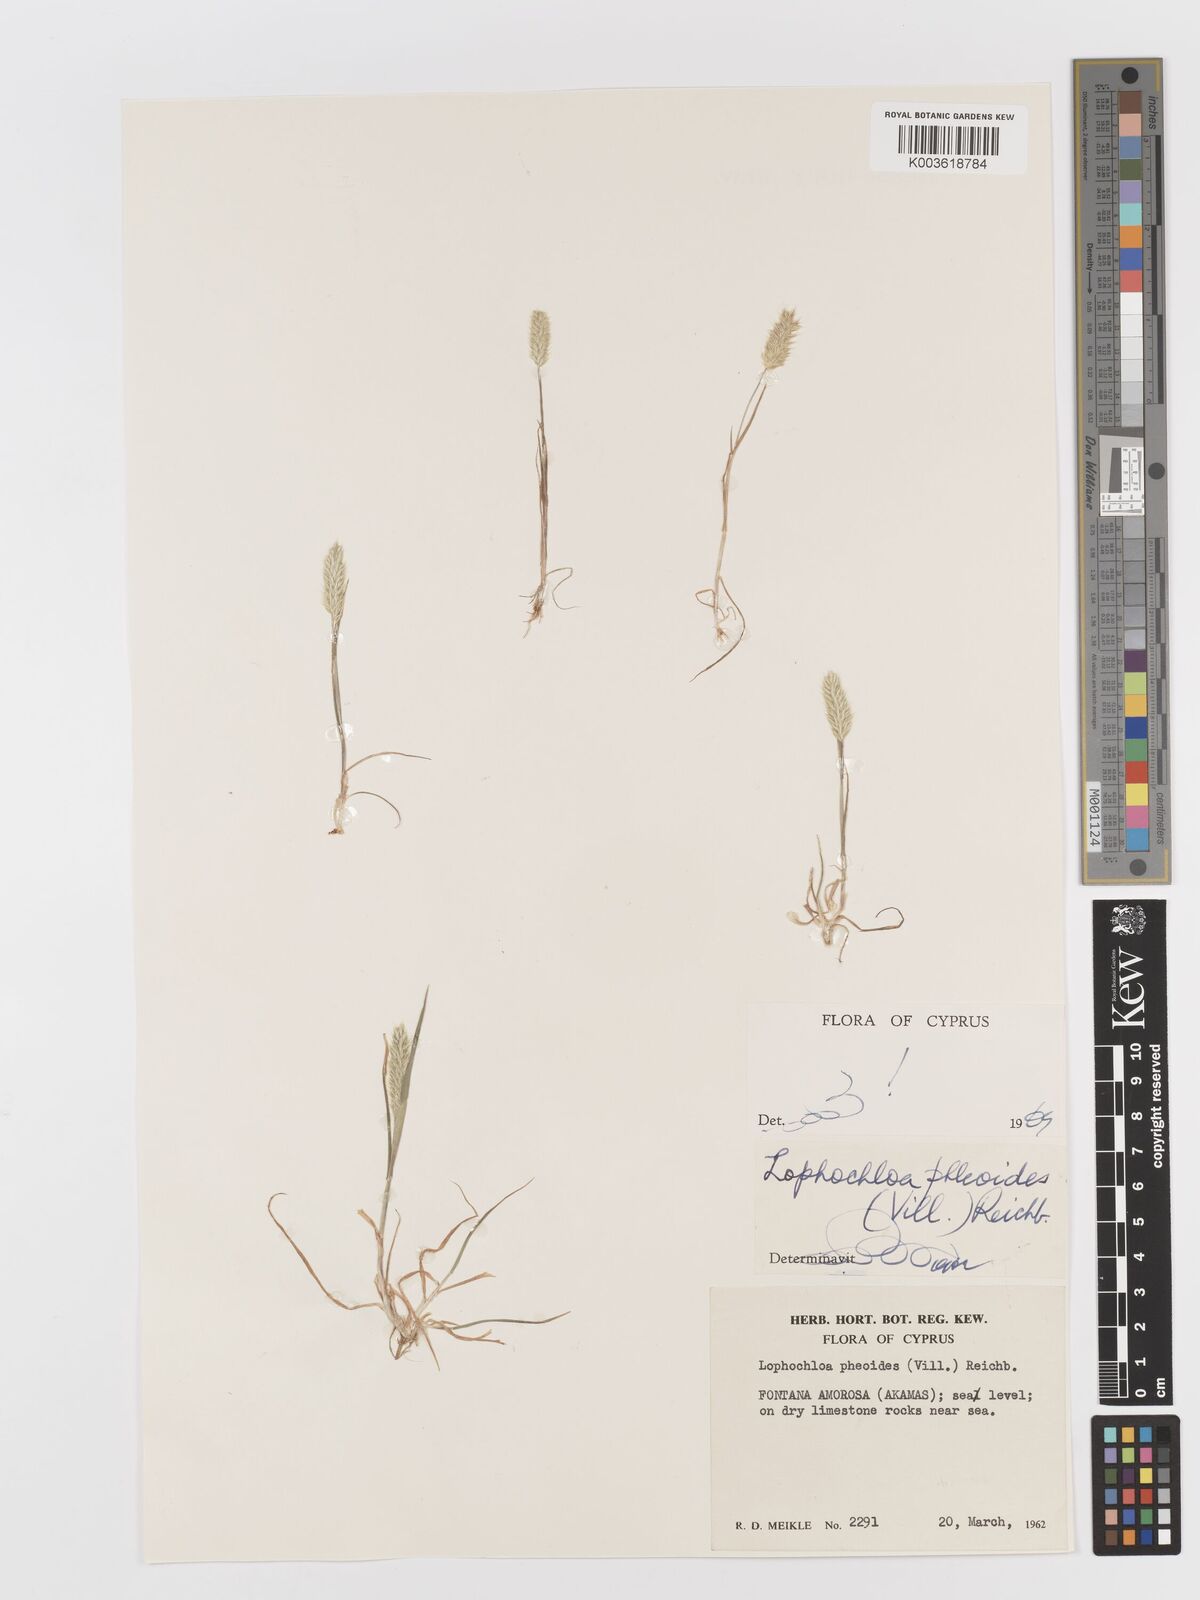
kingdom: Plantae
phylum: Tracheophyta
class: Liliopsida
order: Poales
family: Poaceae
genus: Rostraria
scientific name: Rostraria cristata
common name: Mediterranean hair-grass
